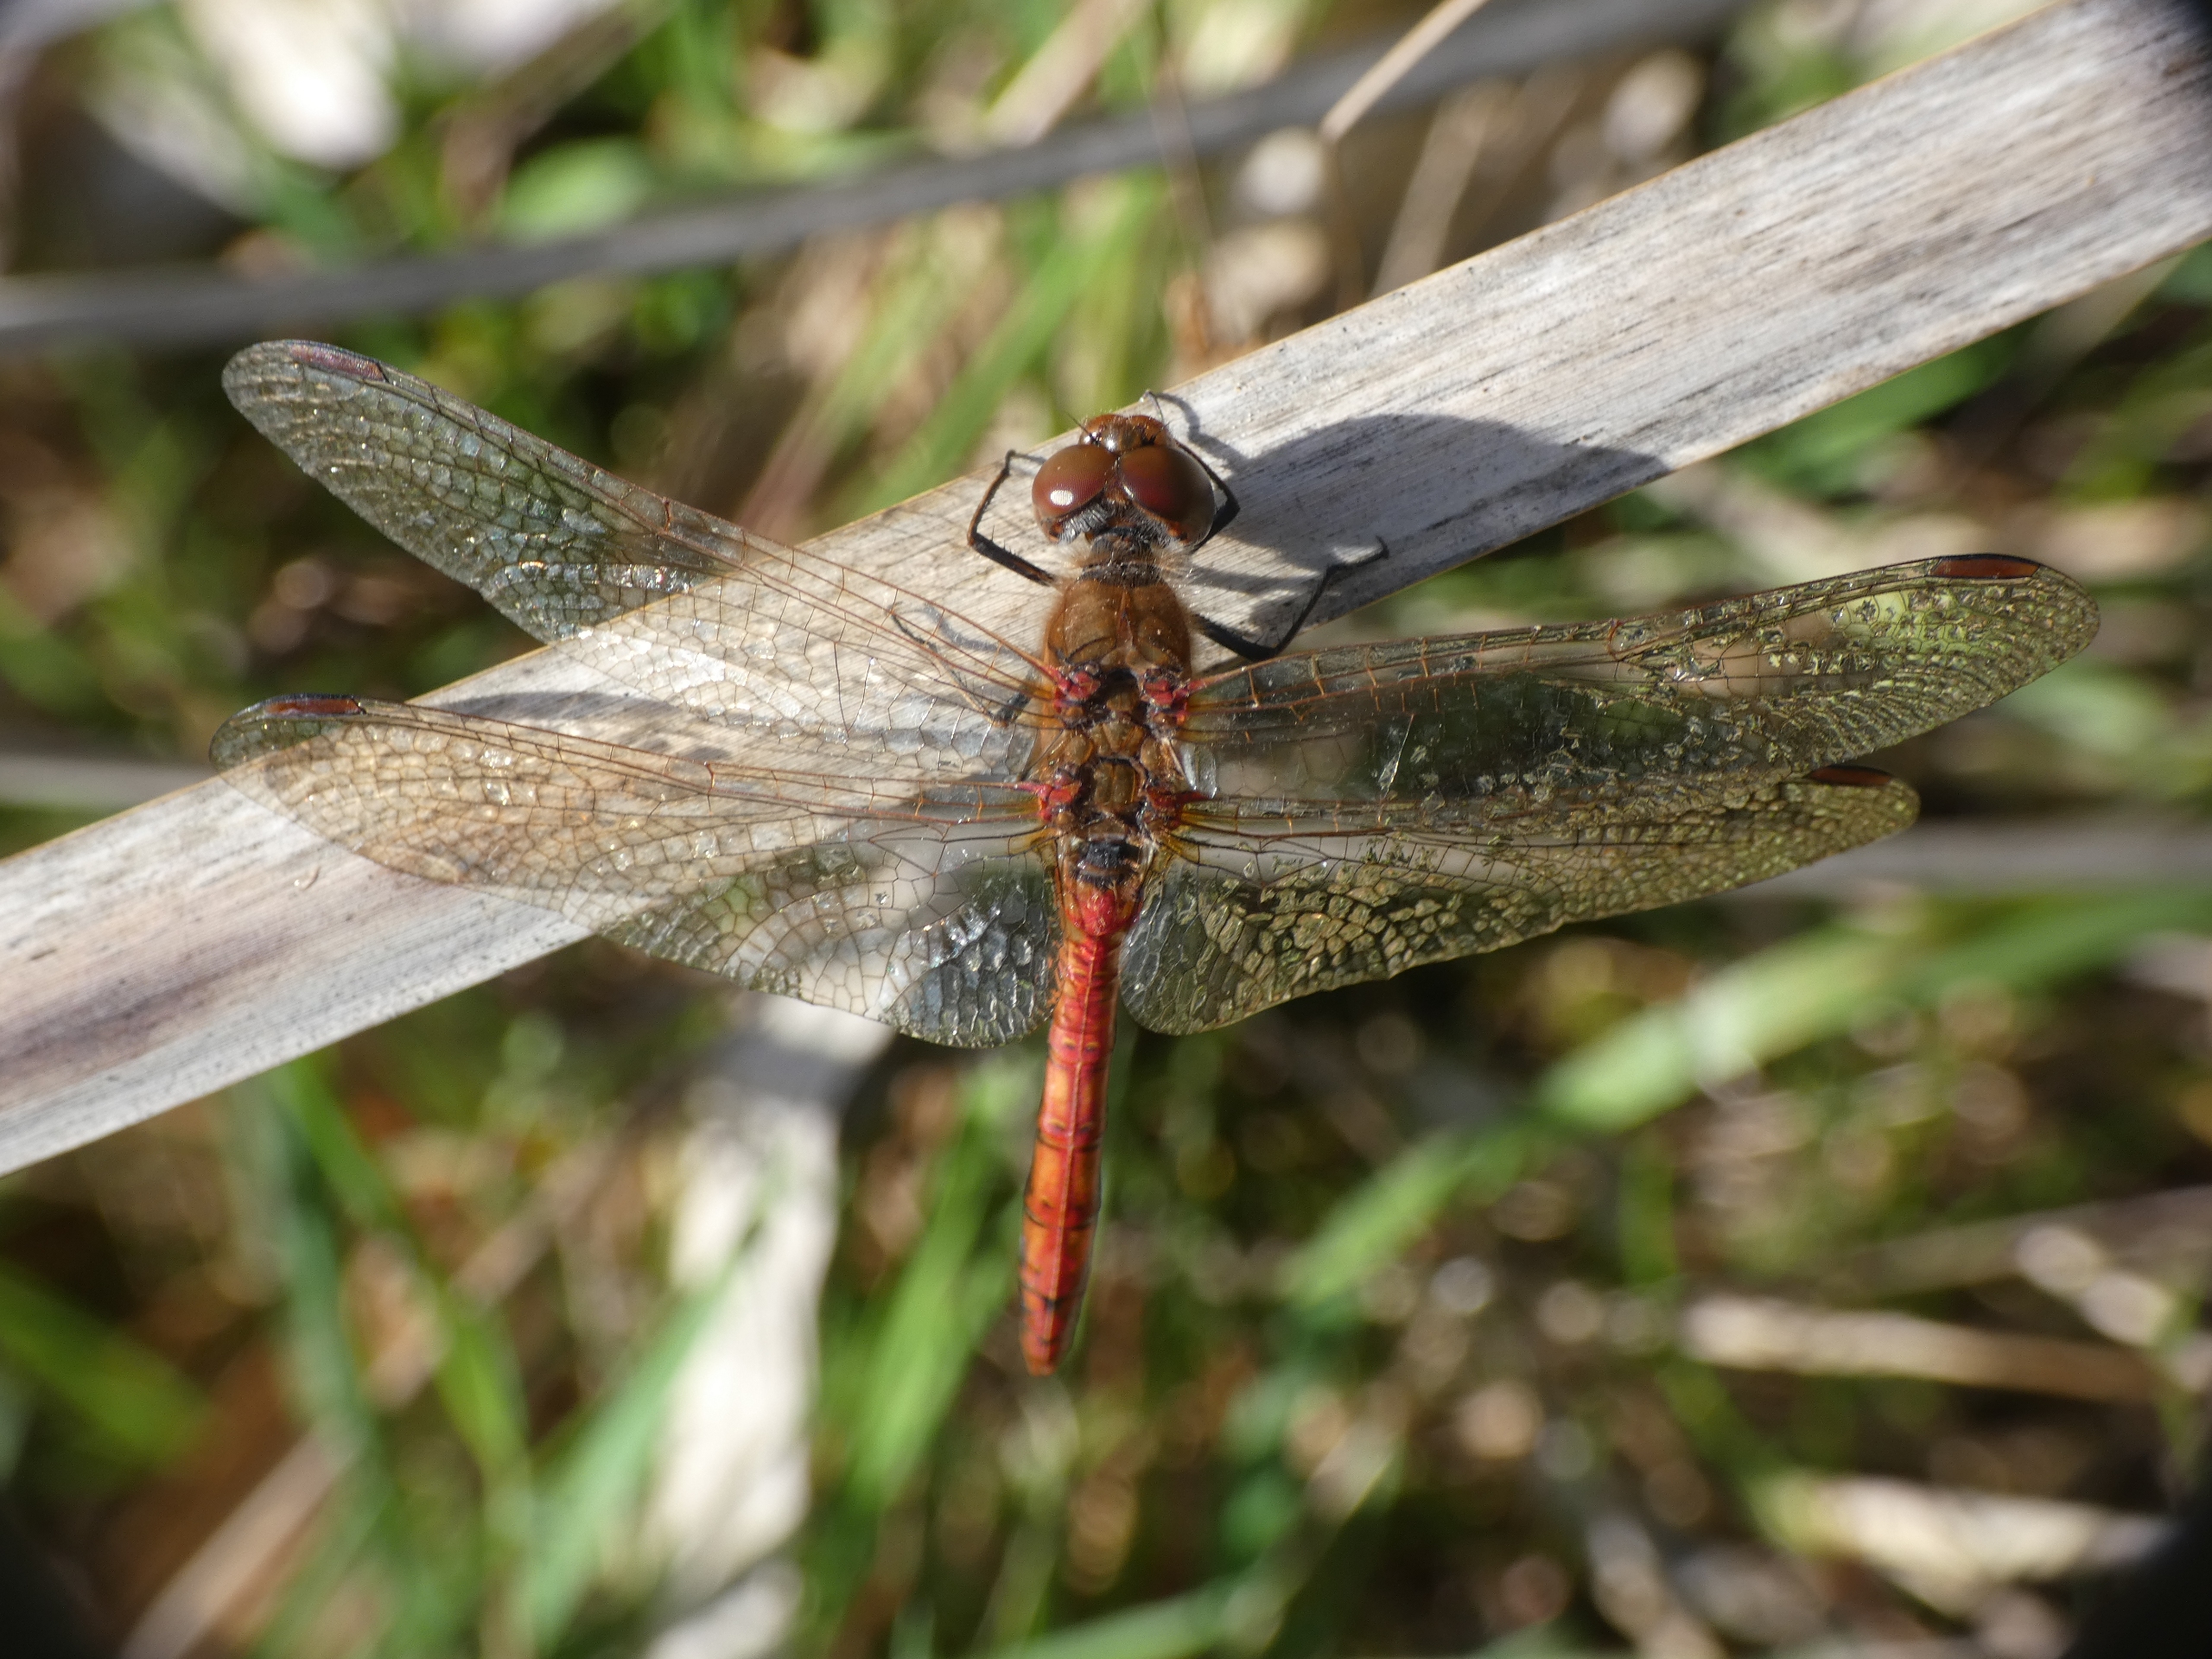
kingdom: Animalia
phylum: Arthropoda
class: Insecta
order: Odonata
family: Libellulidae
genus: Sympetrum
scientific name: Sympetrum striolatum
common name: Stor hedelibel
